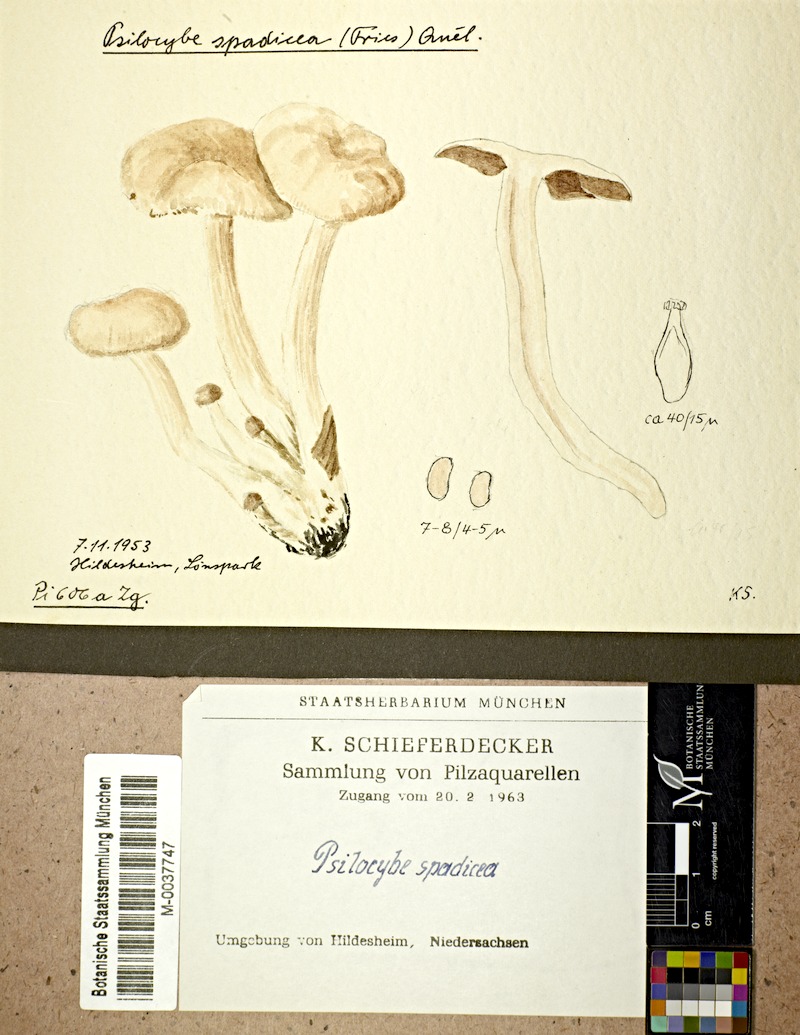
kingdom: Fungi
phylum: Basidiomycota
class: Agaricomycetes
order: Agaricales
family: Psathyrellaceae
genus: Homophron
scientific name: Homophron spadiceum
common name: Chestnut brittlestem
